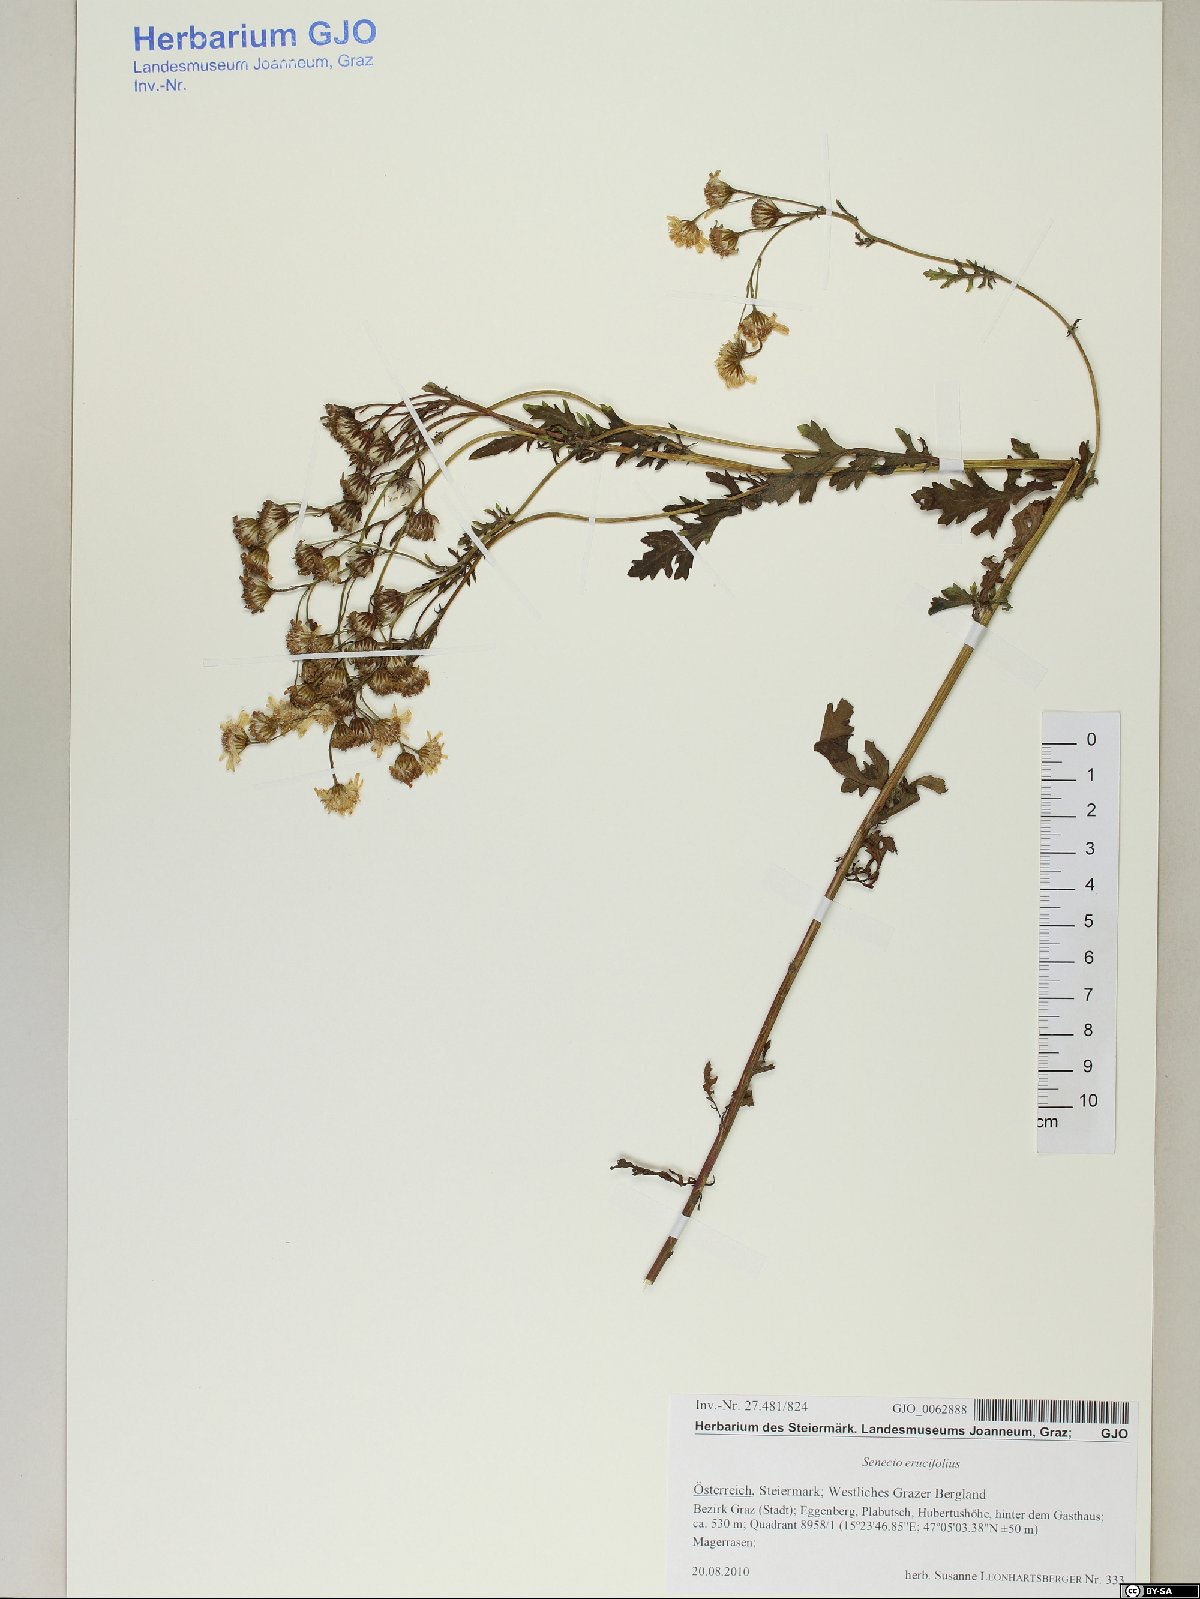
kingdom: Plantae
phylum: Tracheophyta
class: Magnoliopsida
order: Asterales
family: Asteraceae
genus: Jacobaea
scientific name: Jacobaea erucifolia
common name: Hoary ragwort
